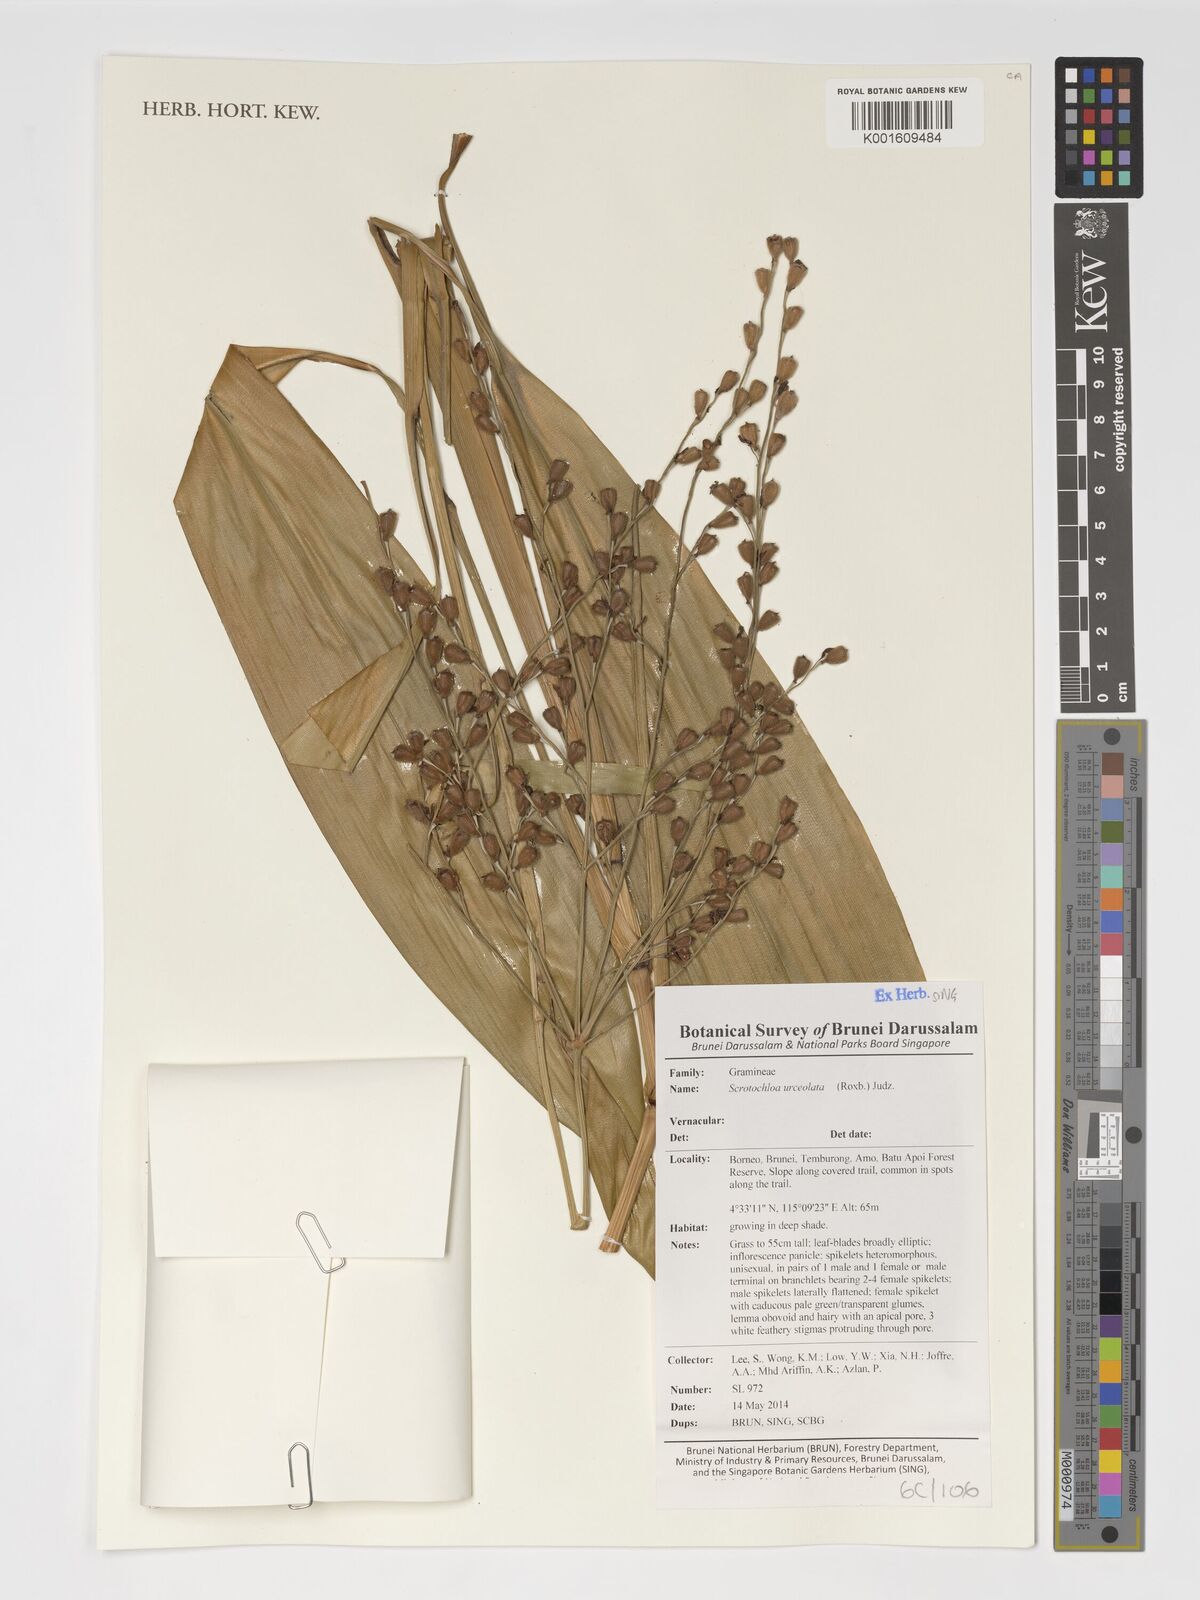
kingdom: Plantae
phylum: Tracheophyta
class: Liliopsida
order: Poales
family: Poaceae
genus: Scrotochloa
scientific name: Scrotochloa urceolata
